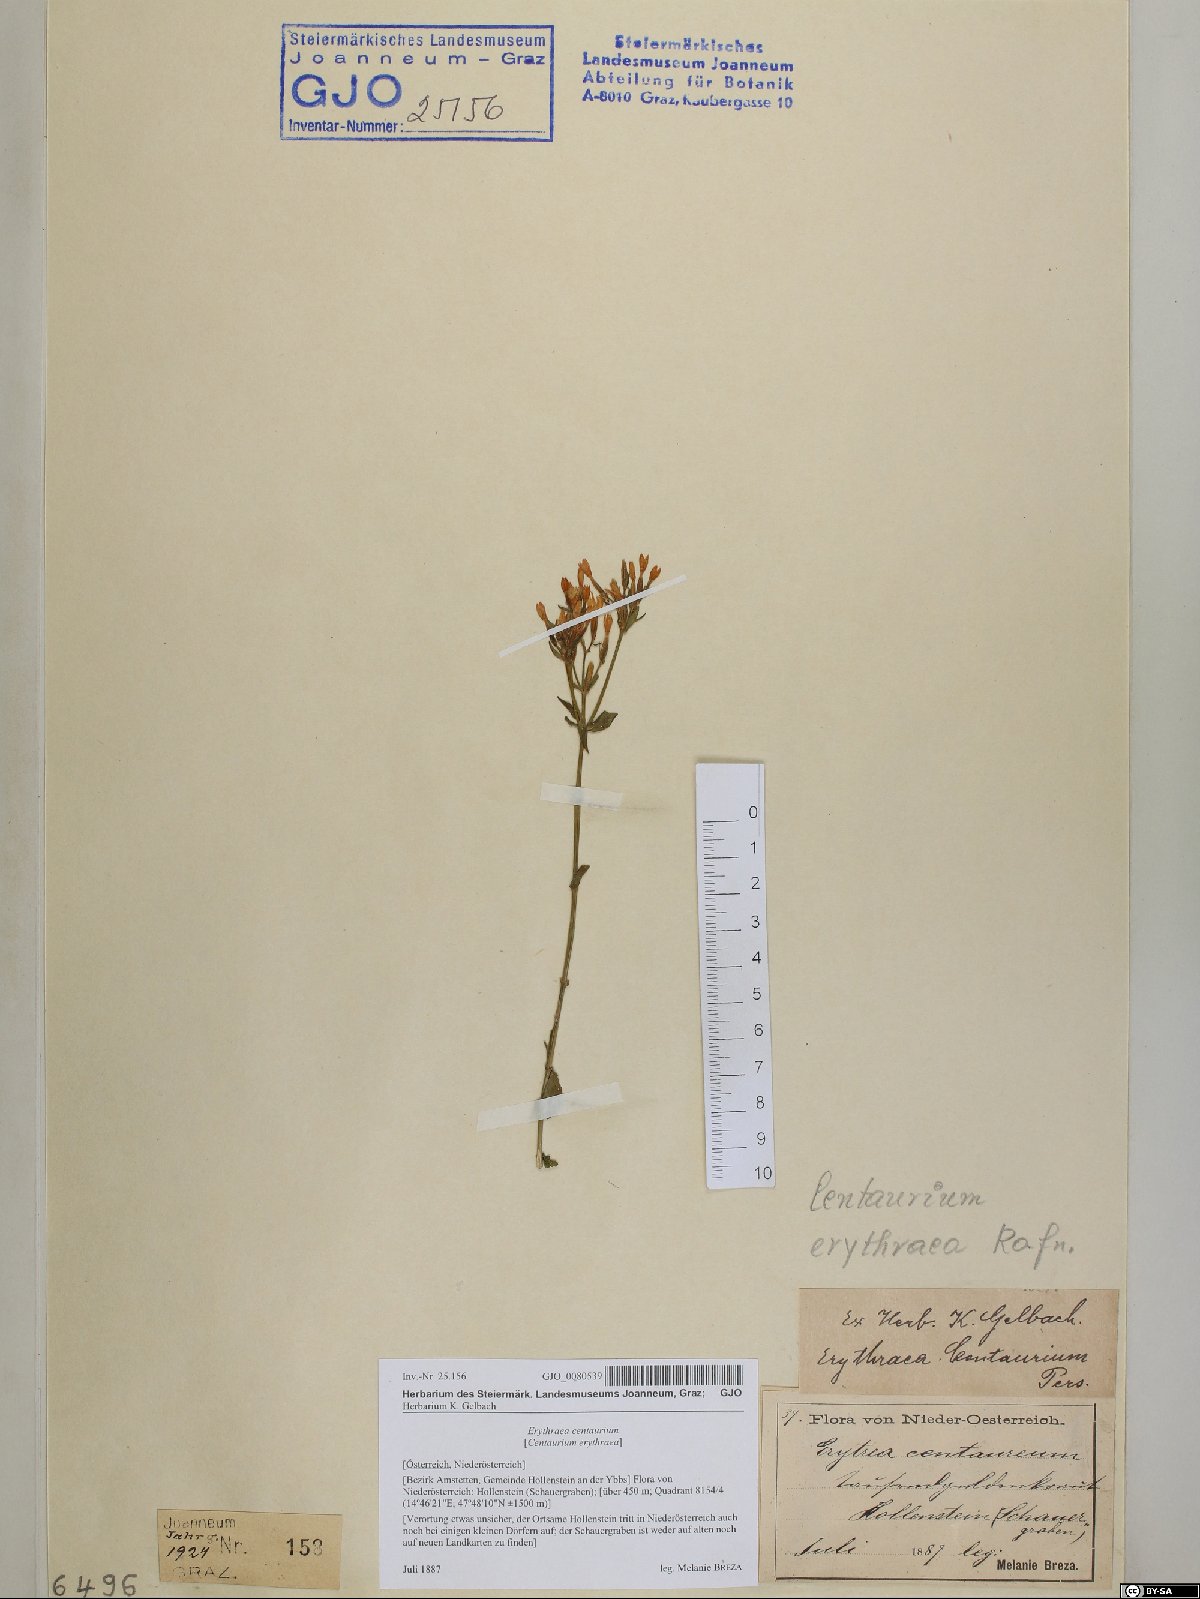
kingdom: Plantae
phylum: Tracheophyta
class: Magnoliopsida
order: Gentianales
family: Gentianaceae
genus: Centaurium
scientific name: Centaurium erythraea
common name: Common centaury
